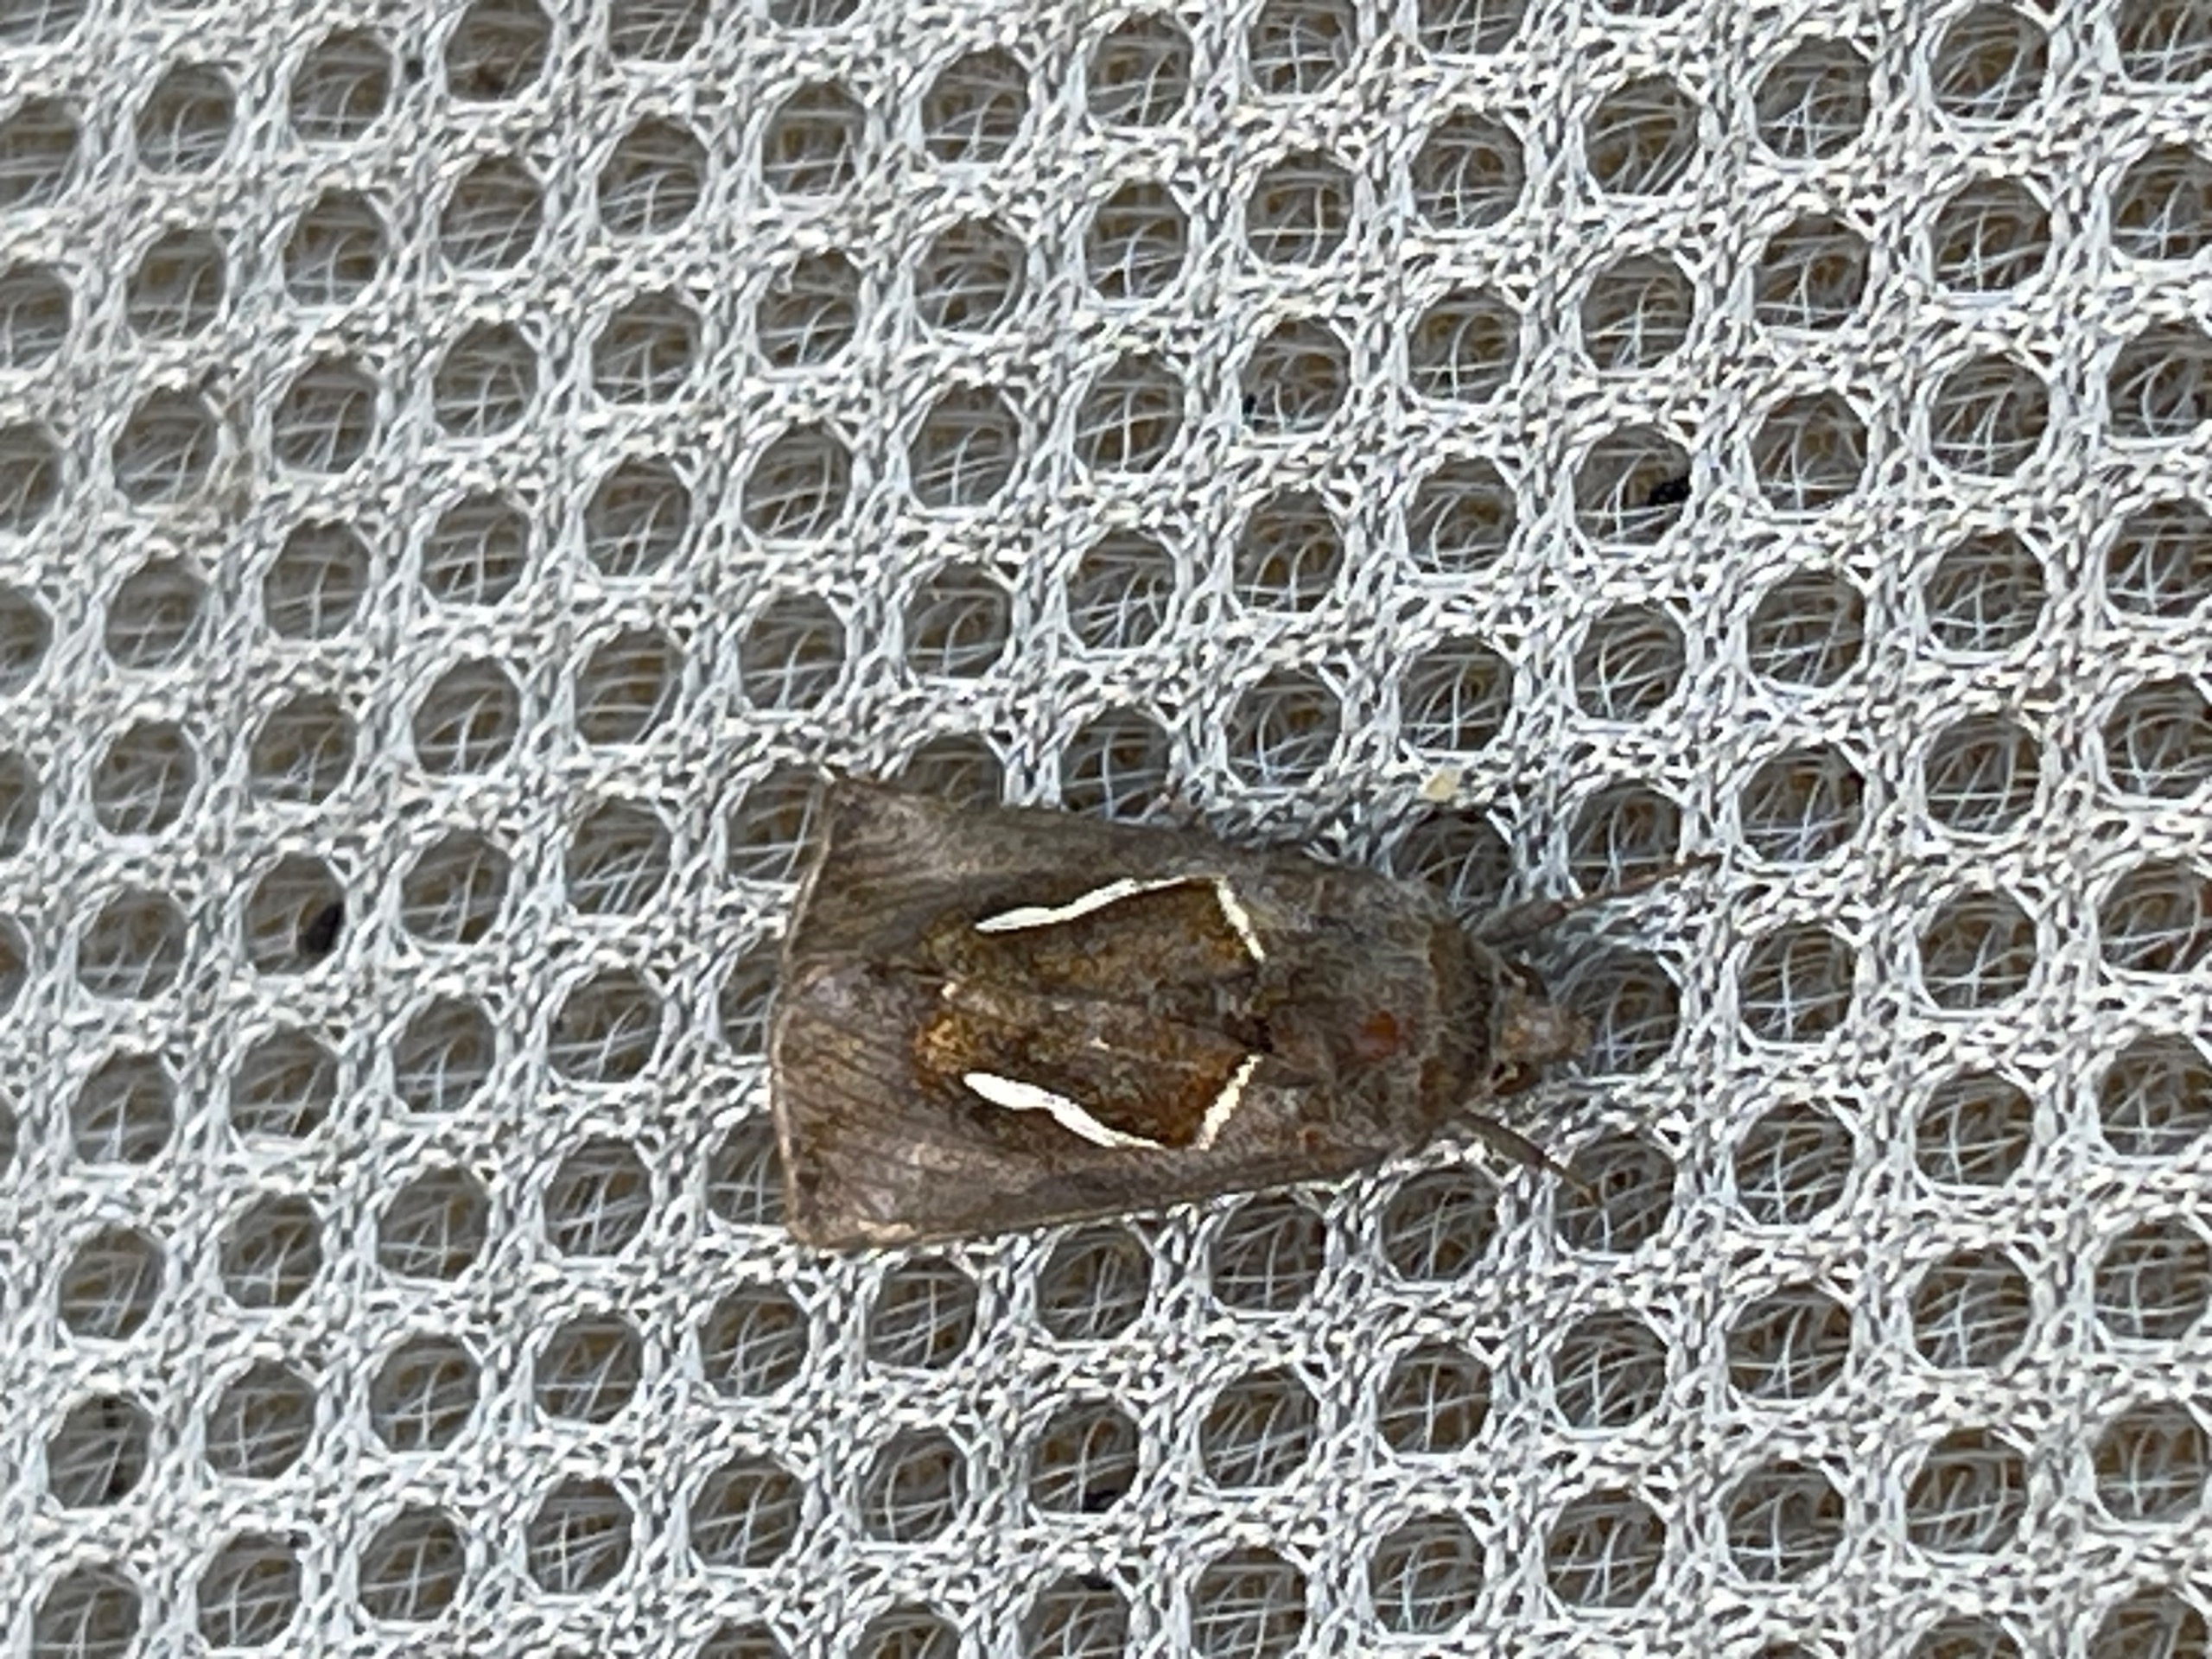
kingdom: Animalia
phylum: Arthropoda
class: Insecta
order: Lepidoptera
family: Noctuidae
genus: Macdunnoughia
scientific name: Macdunnoughia confusa
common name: Sølvdråbeugle
